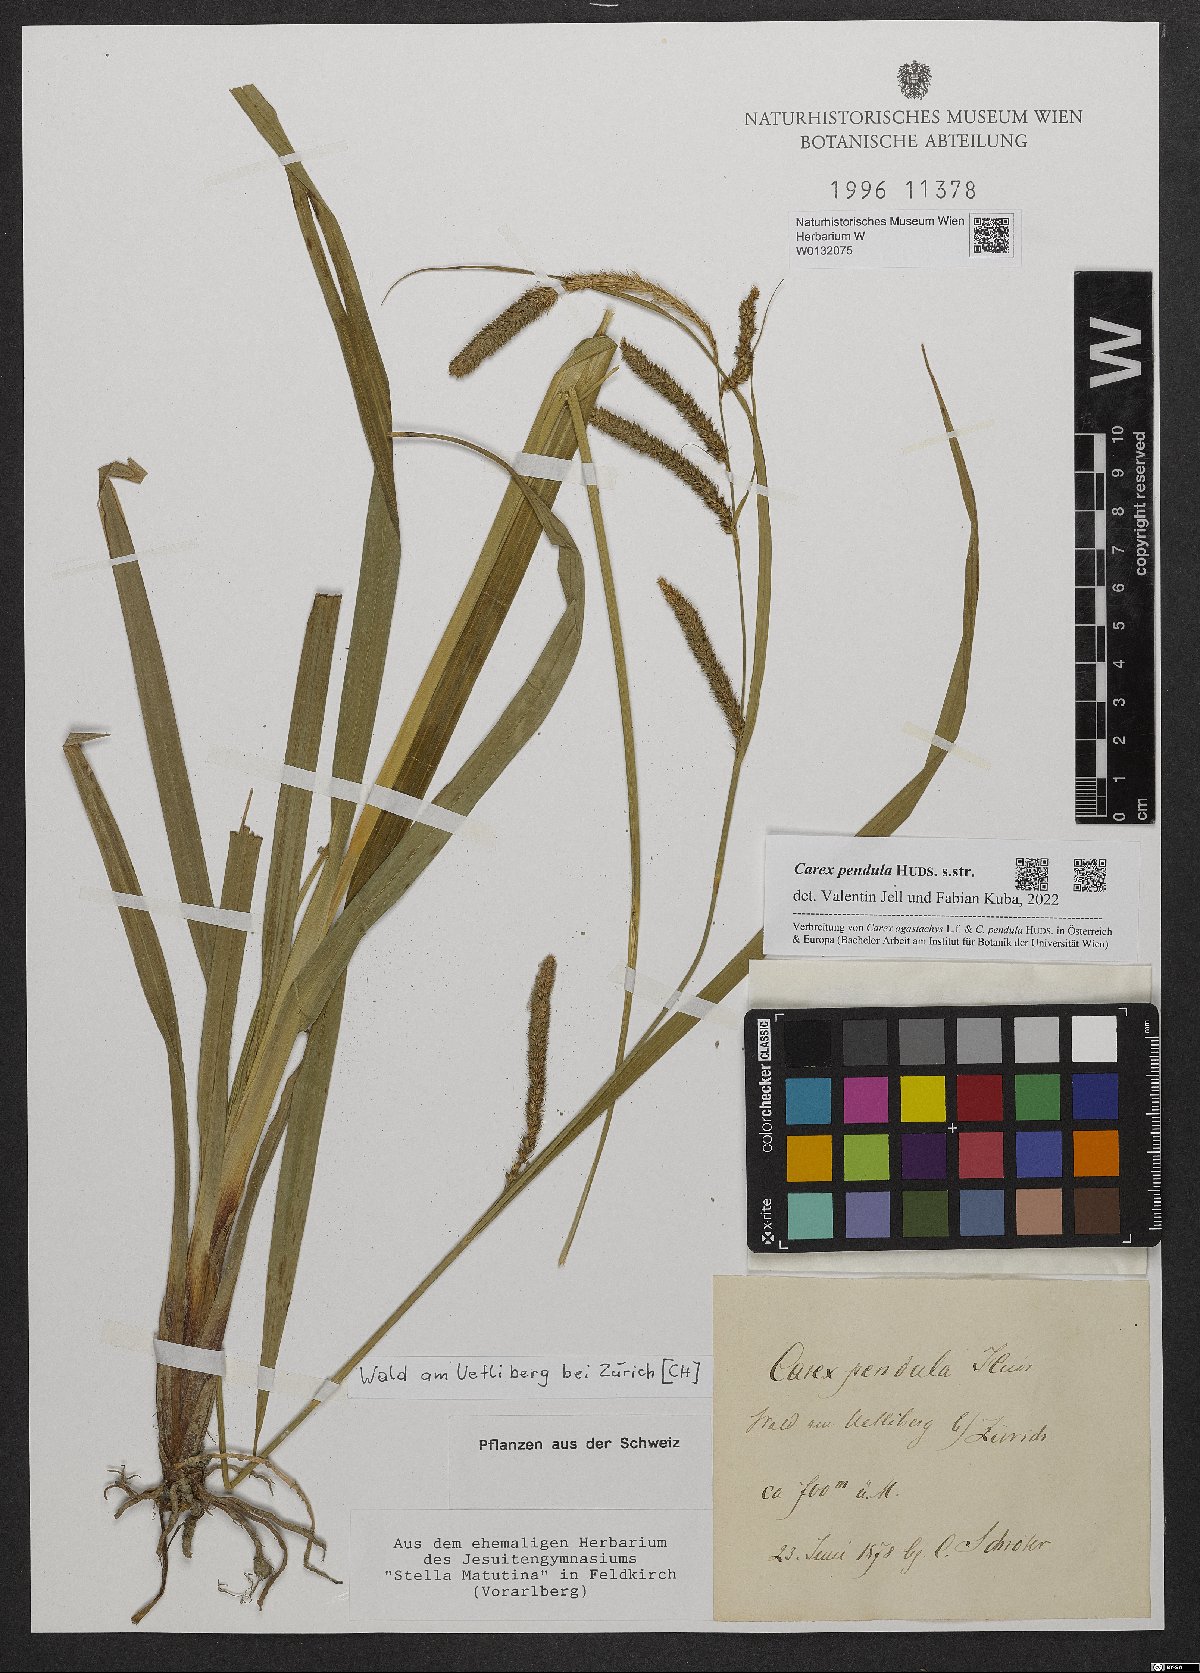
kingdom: Plantae
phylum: Tracheophyta
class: Liliopsida
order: Poales
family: Cyperaceae
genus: Carex
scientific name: Carex pendula
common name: Pendulous sedge
